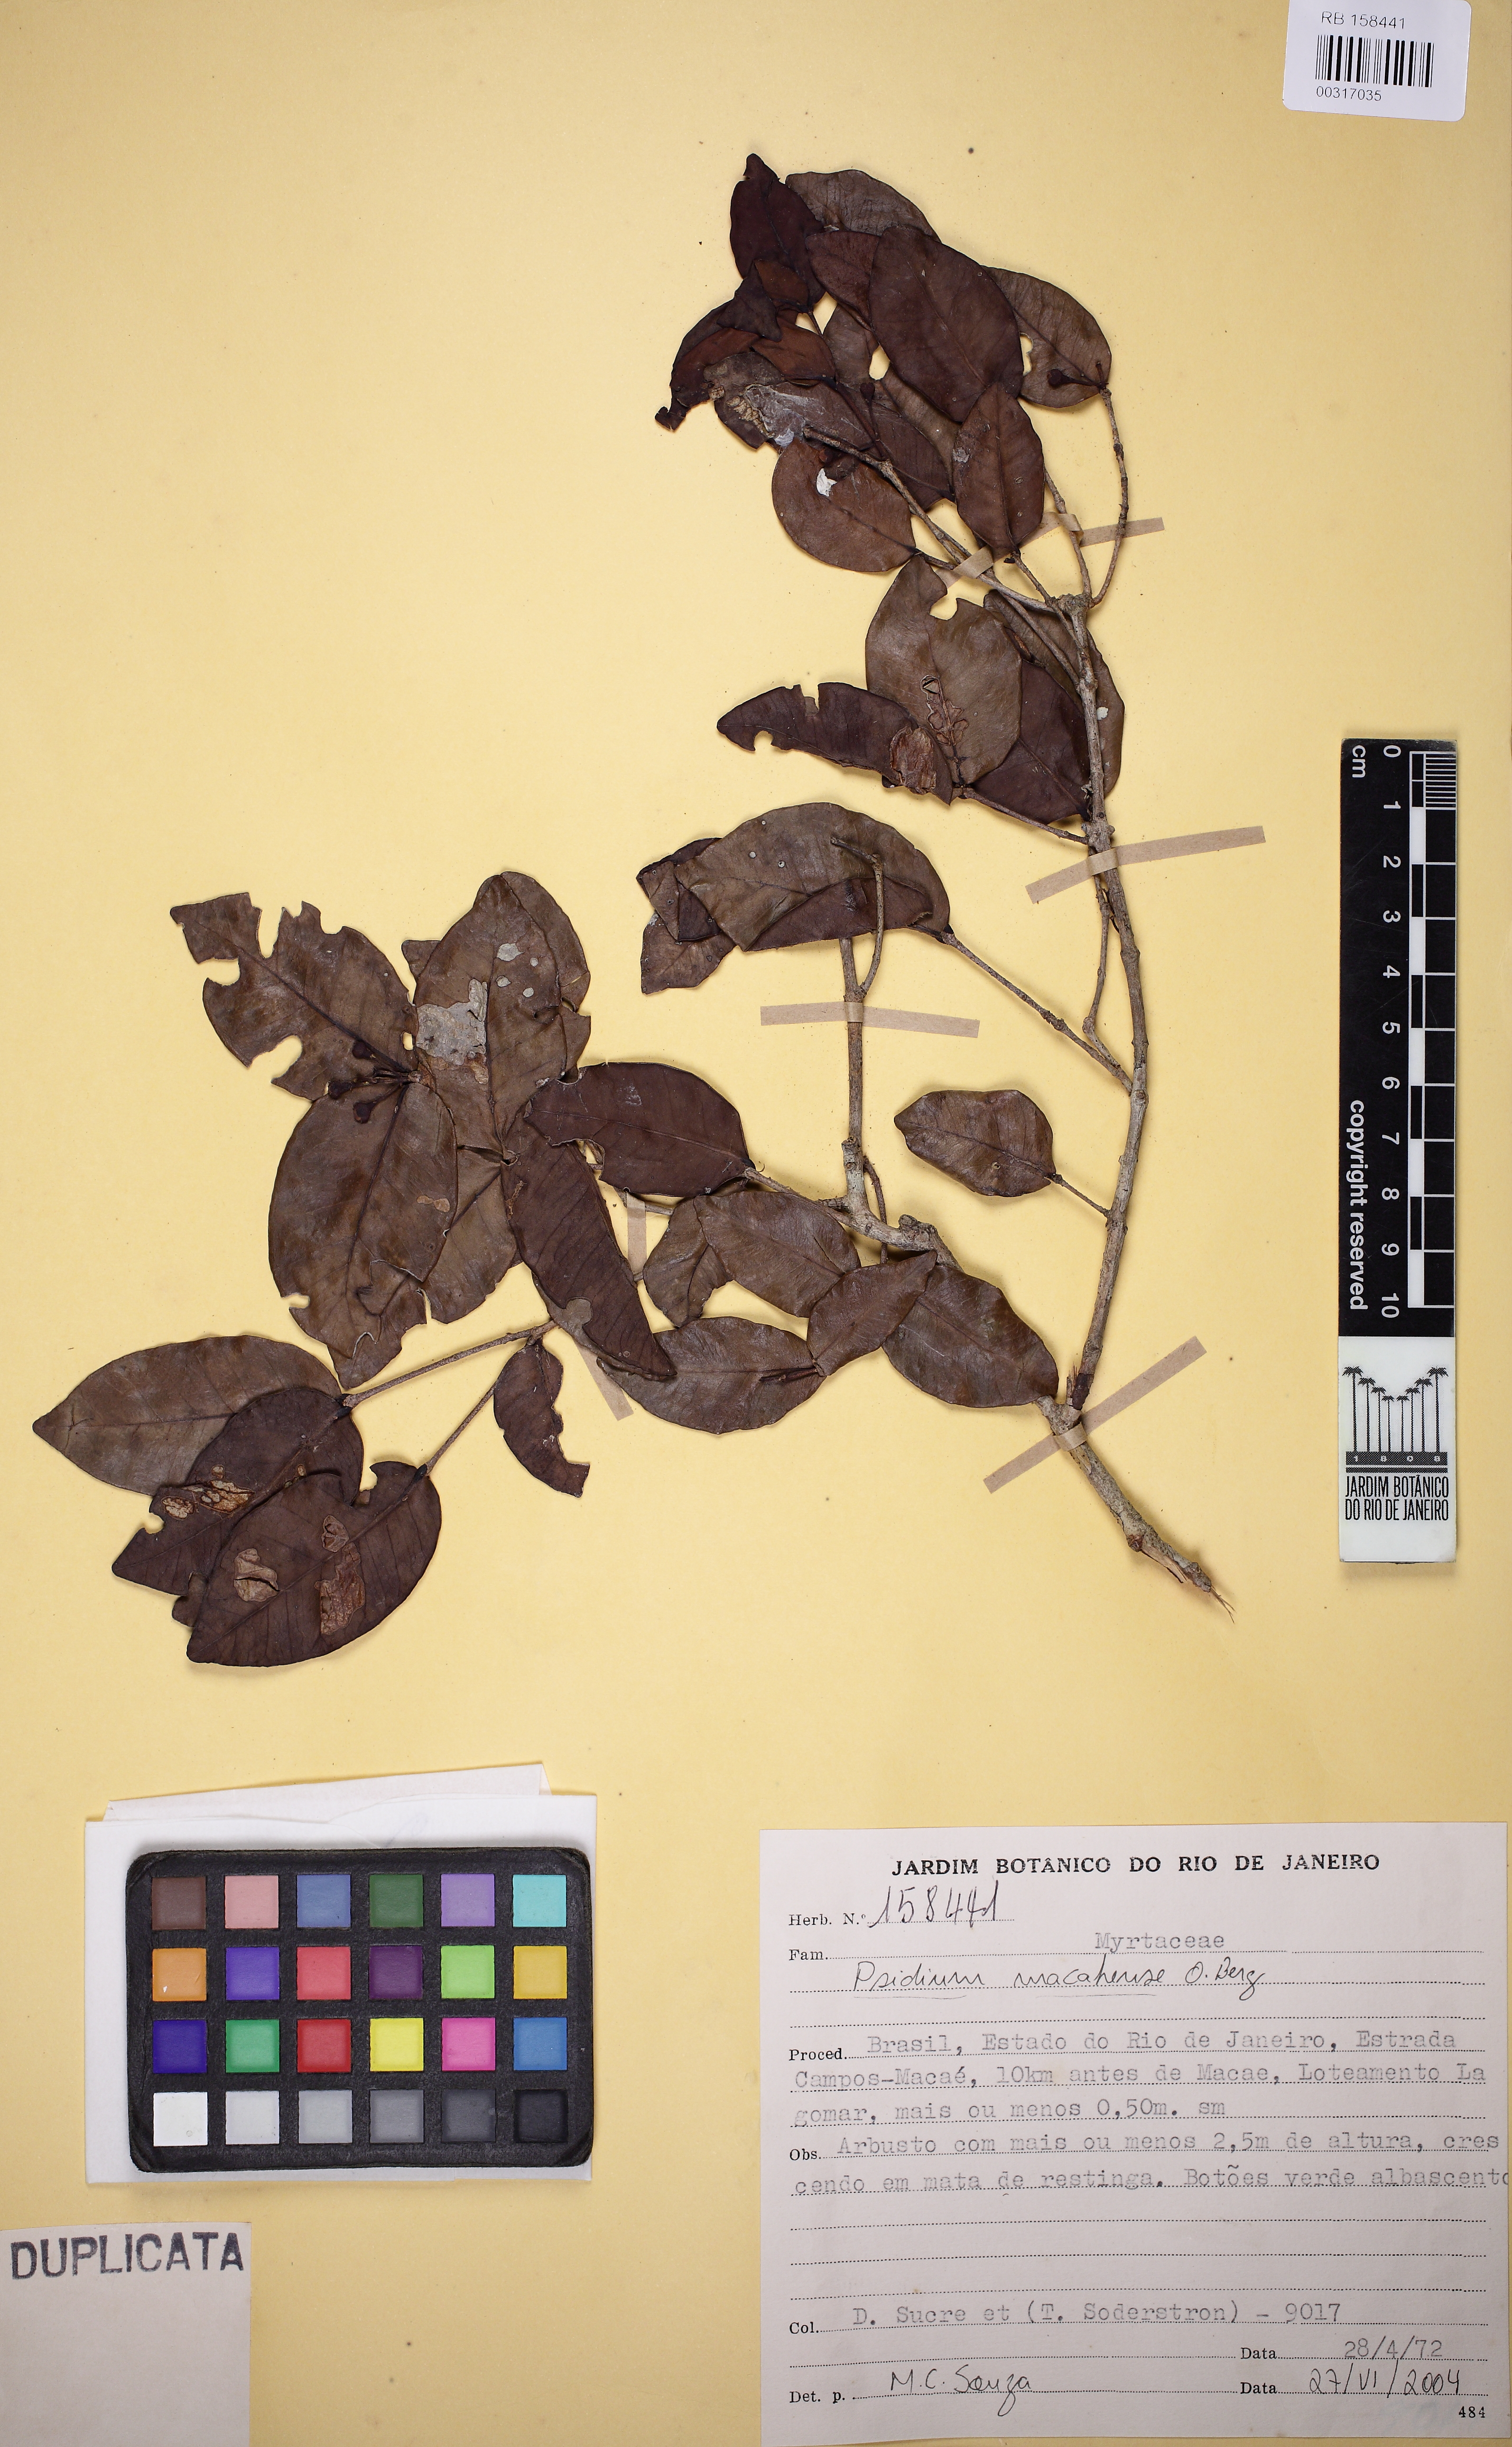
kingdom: Plantae
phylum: Tracheophyta
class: Magnoliopsida
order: Myrtales
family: Myrtaceae
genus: Psidium
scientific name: Psidium brownianum
